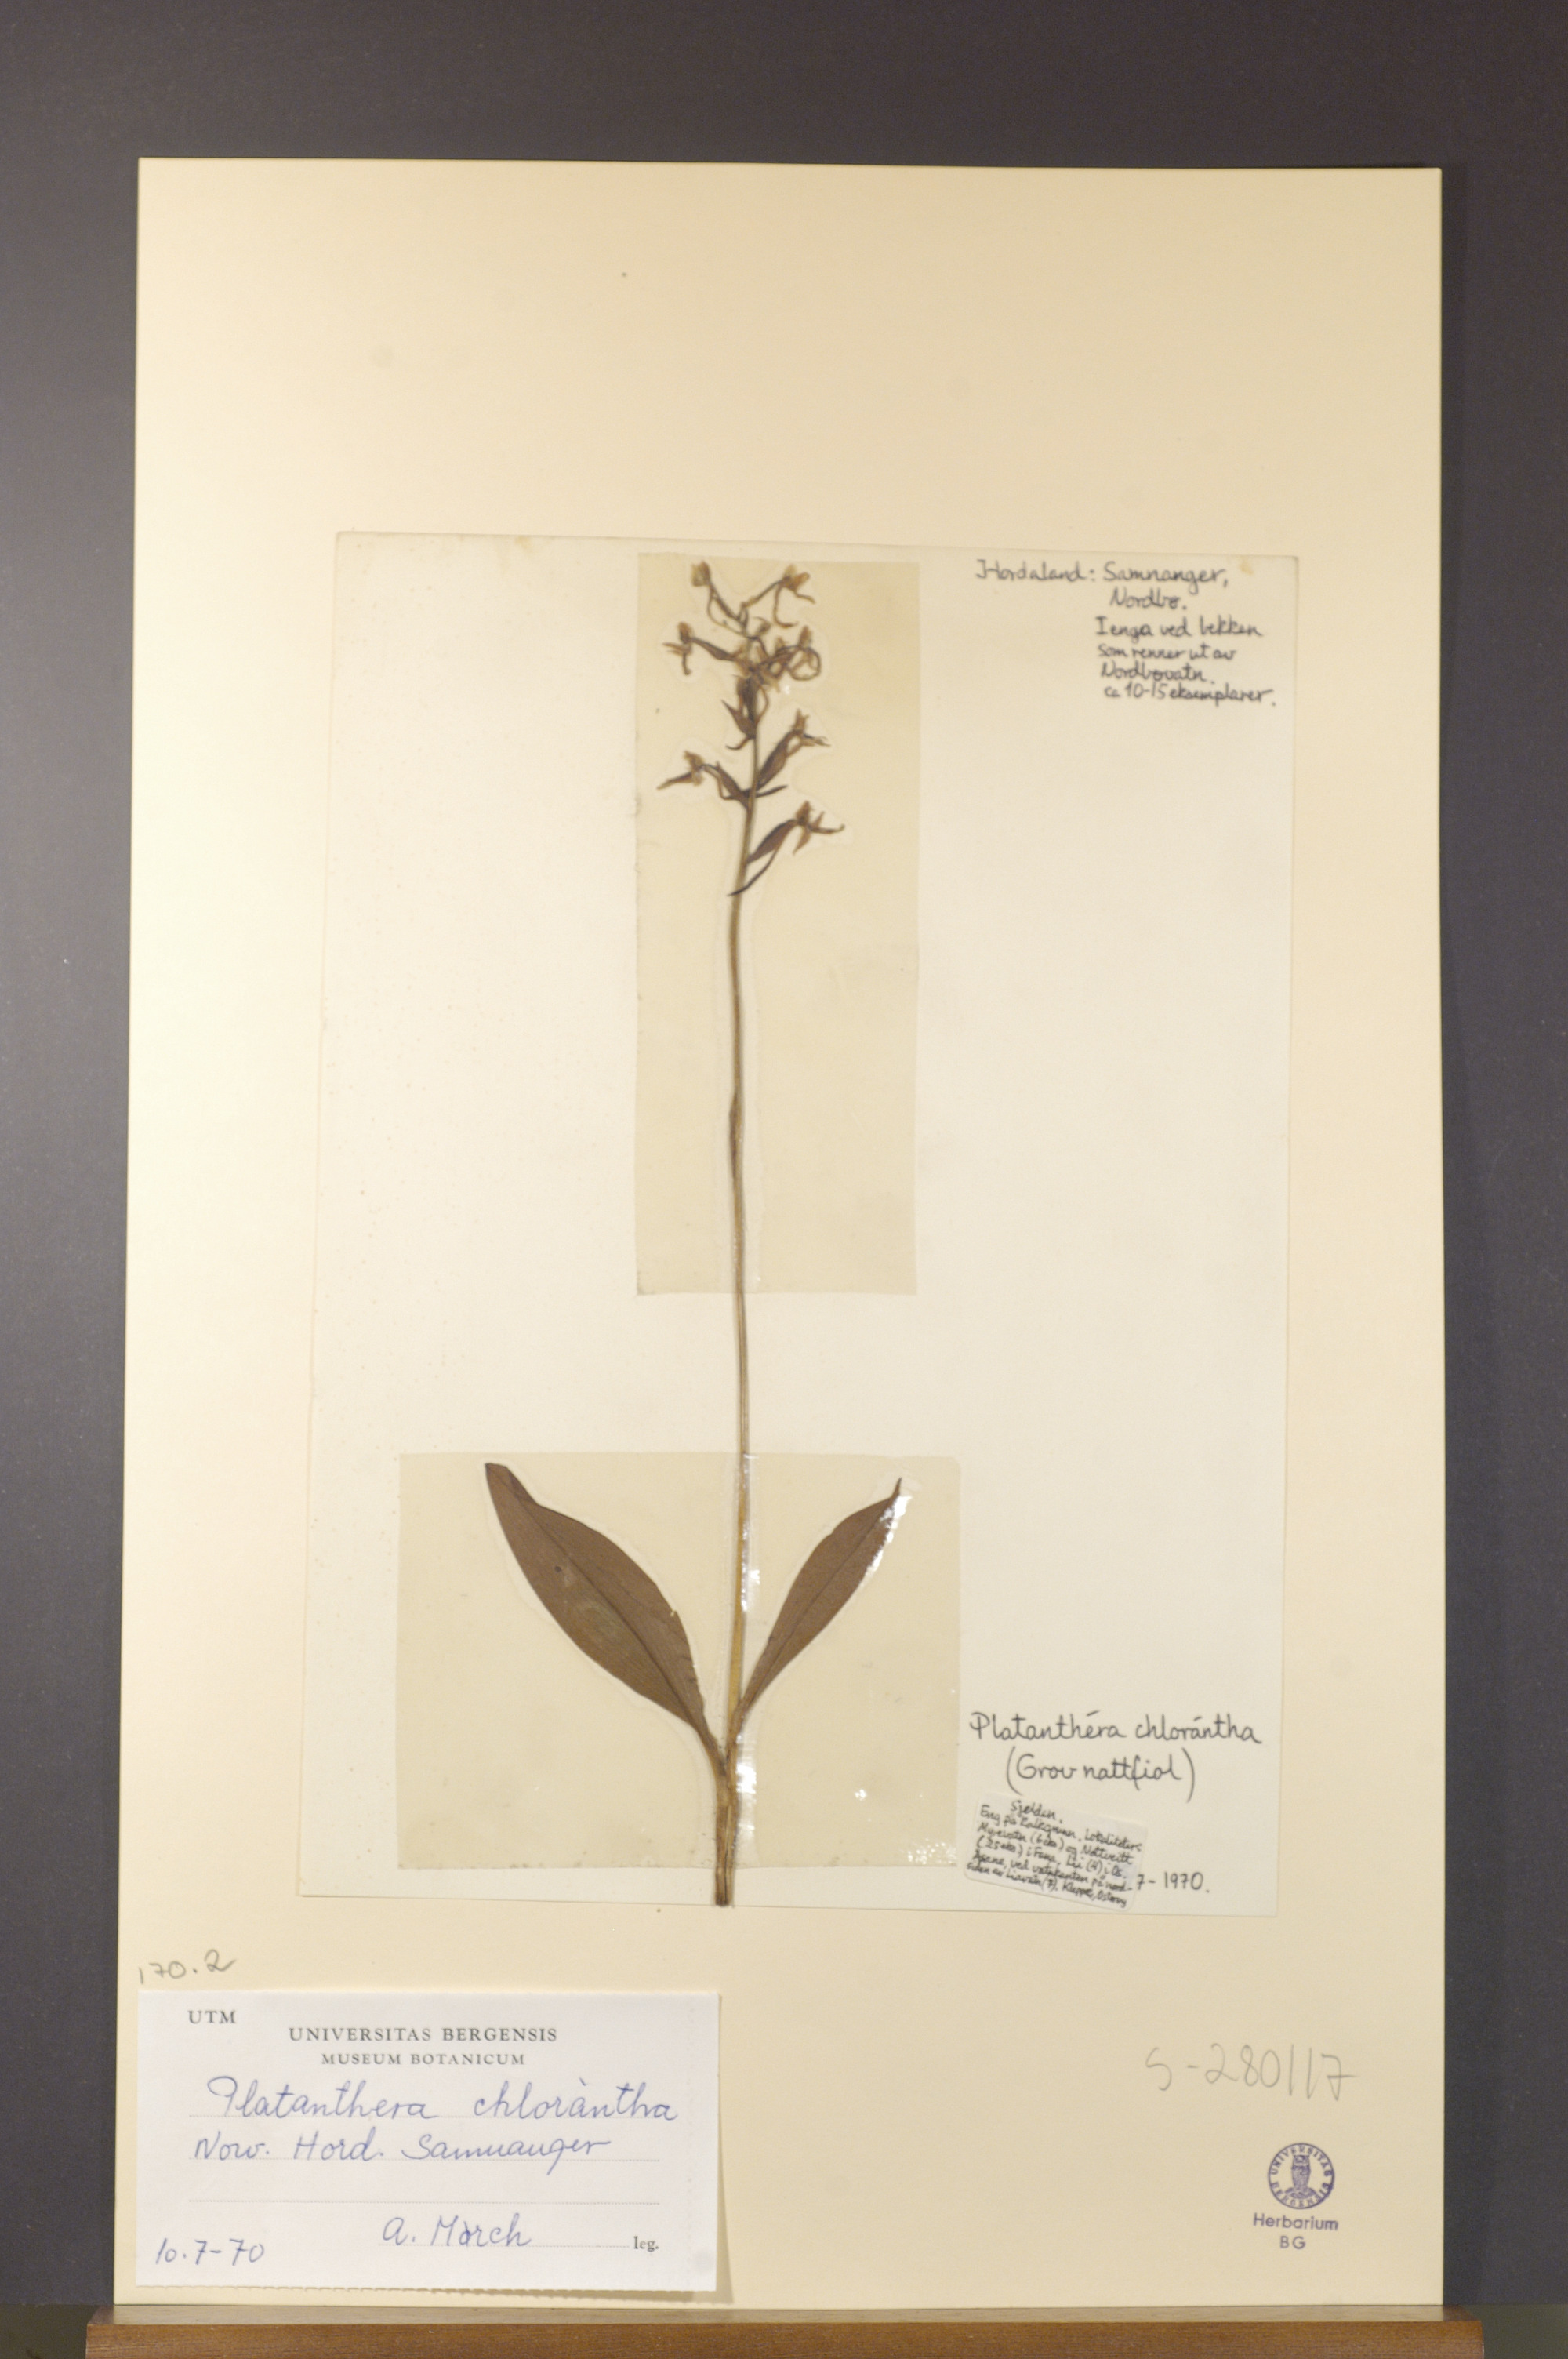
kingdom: Plantae
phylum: Tracheophyta
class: Liliopsida
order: Asparagales
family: Orchidaceae
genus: Platanthera
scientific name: Platanthera chlorantha
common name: Greater butterfly-orchid
